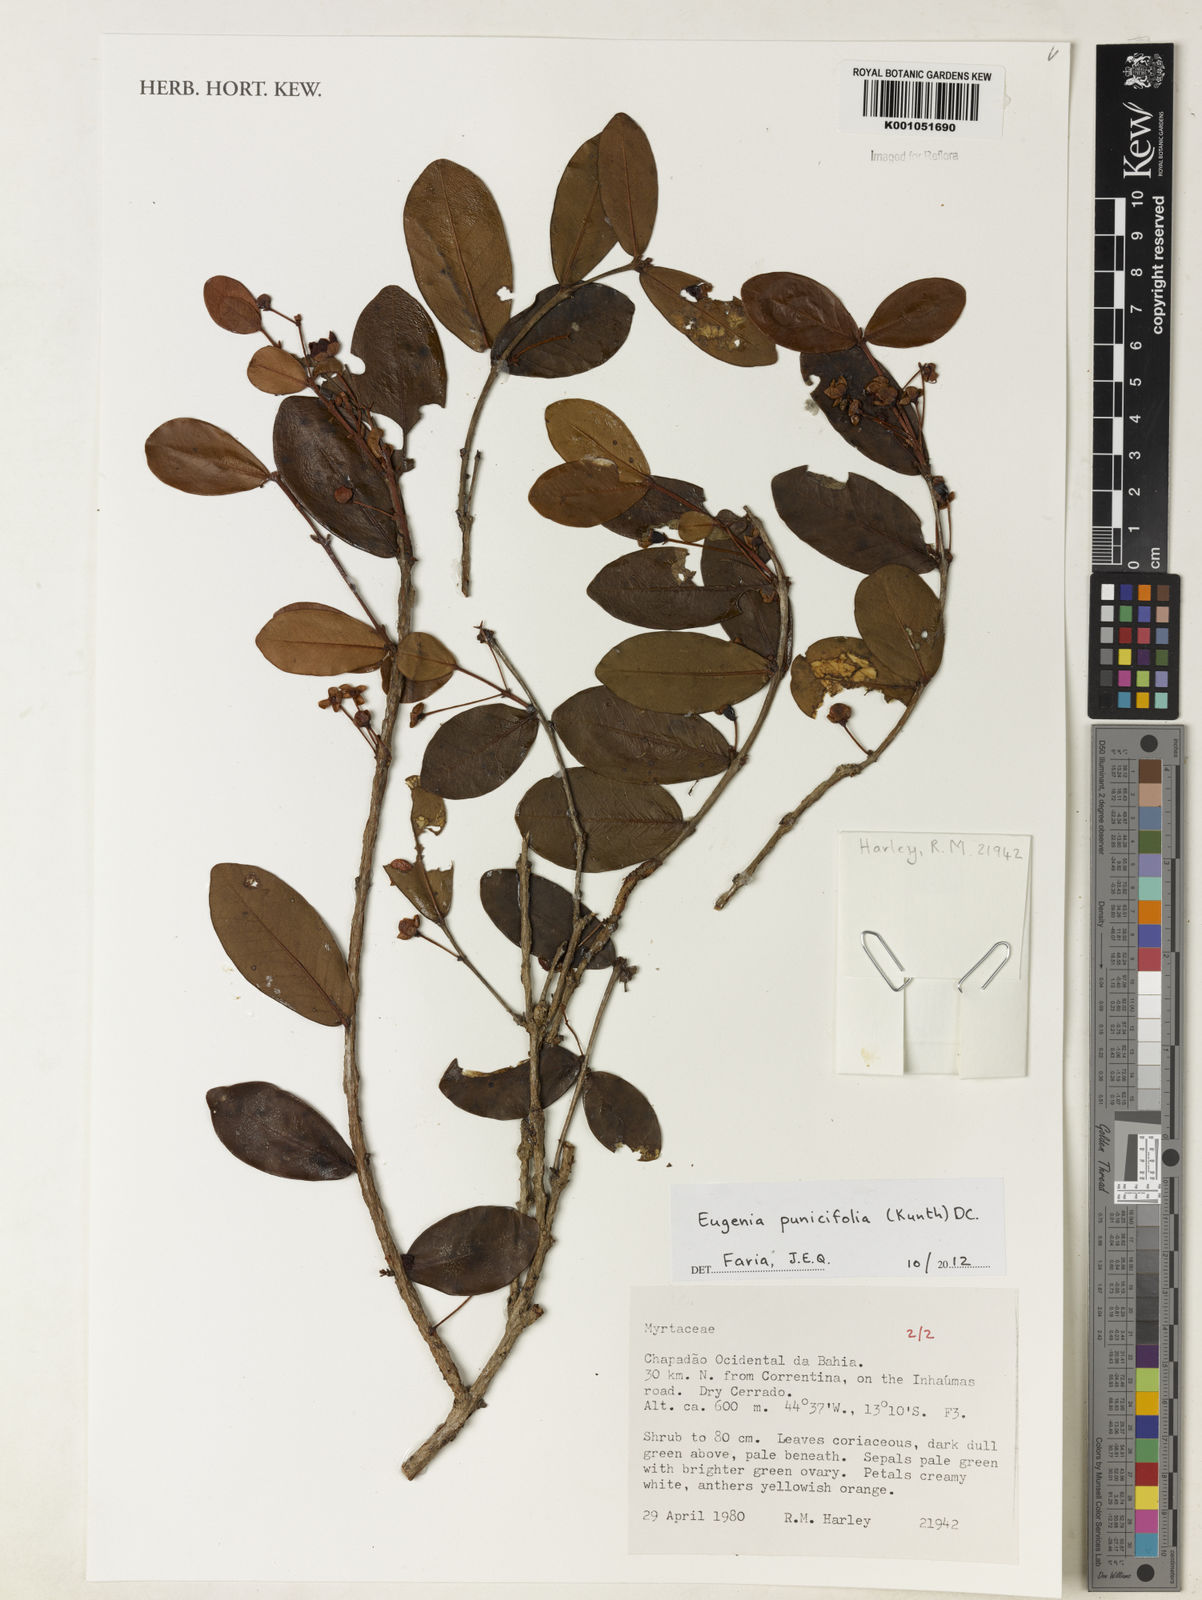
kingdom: Plantae
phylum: Tracheophyta
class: Magnoliopsida
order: Myrtales
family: Myrtaceae
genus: Eugenia
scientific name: Eugenia punicifolia
